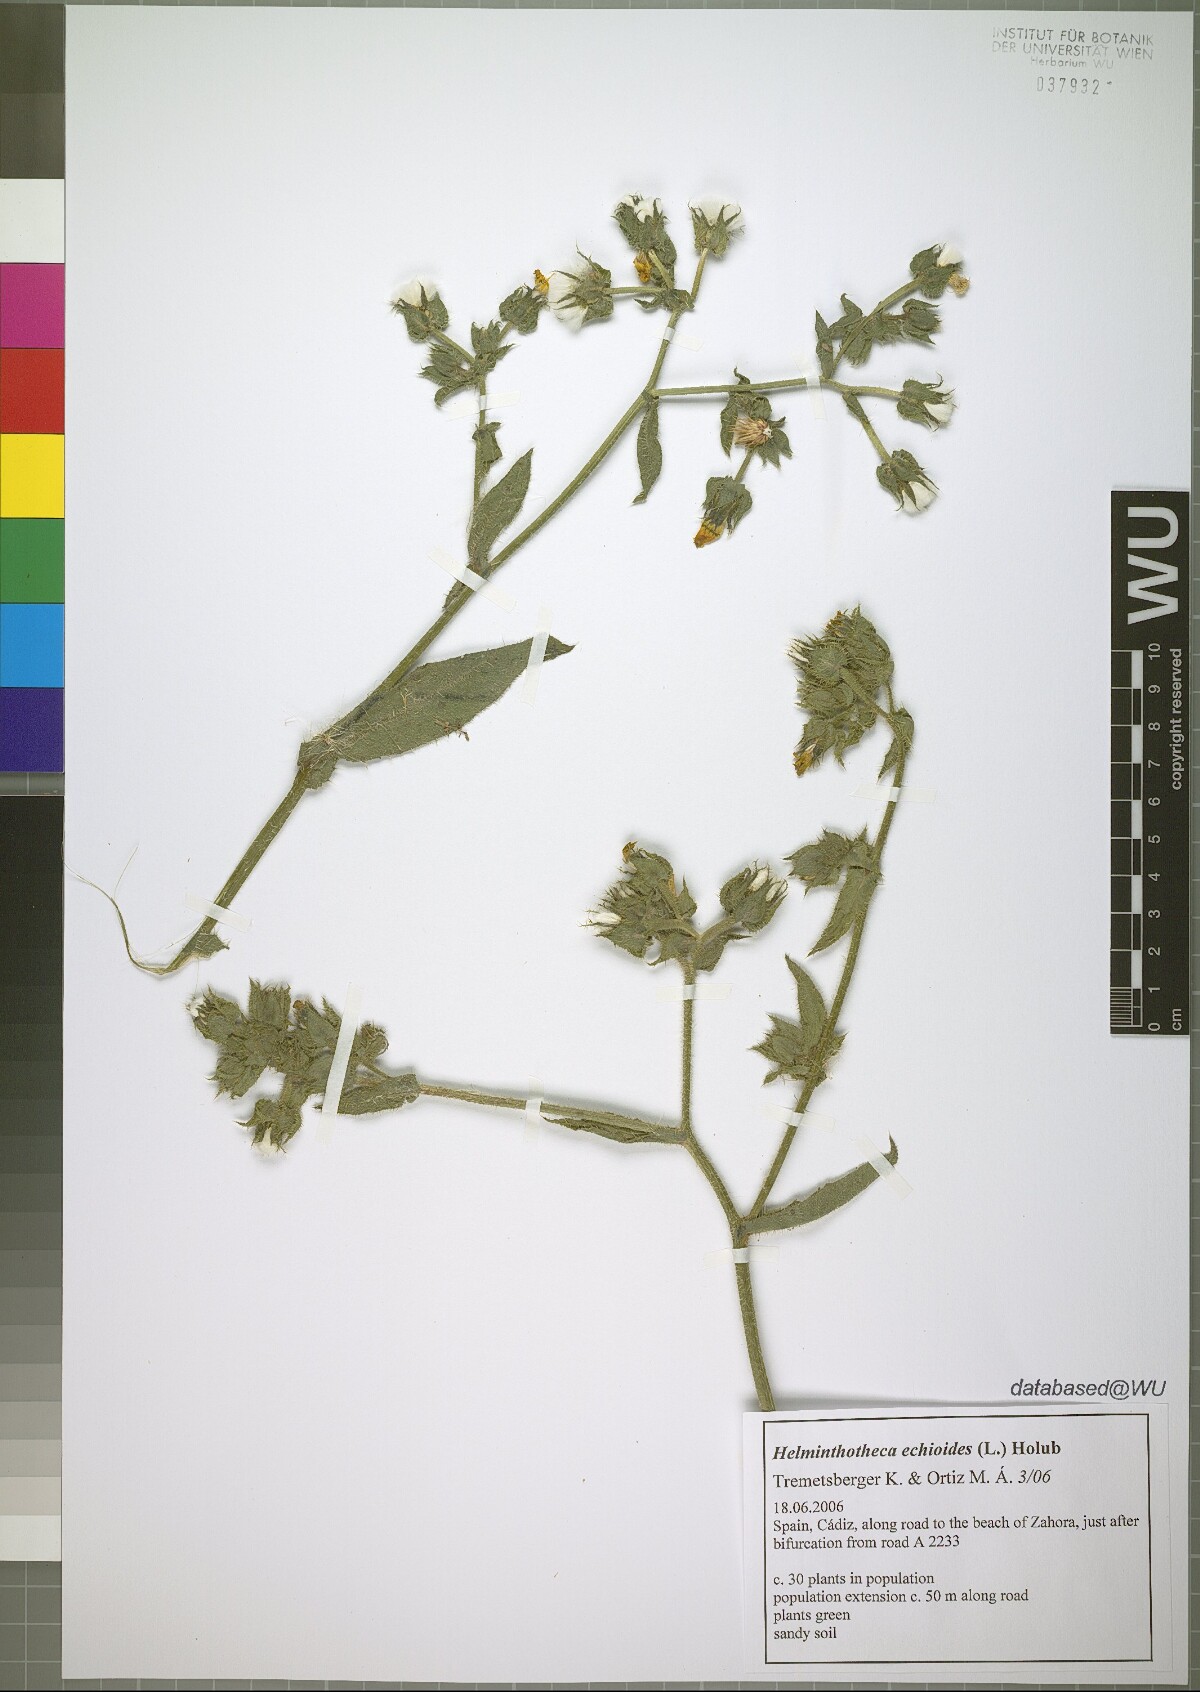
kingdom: Plantae
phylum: Tracheophyta
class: Magnoliopsida
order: Asterales
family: Asteraceae
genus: Helminthotheca
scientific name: Helminthotheca echioides
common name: Ox-tongue
